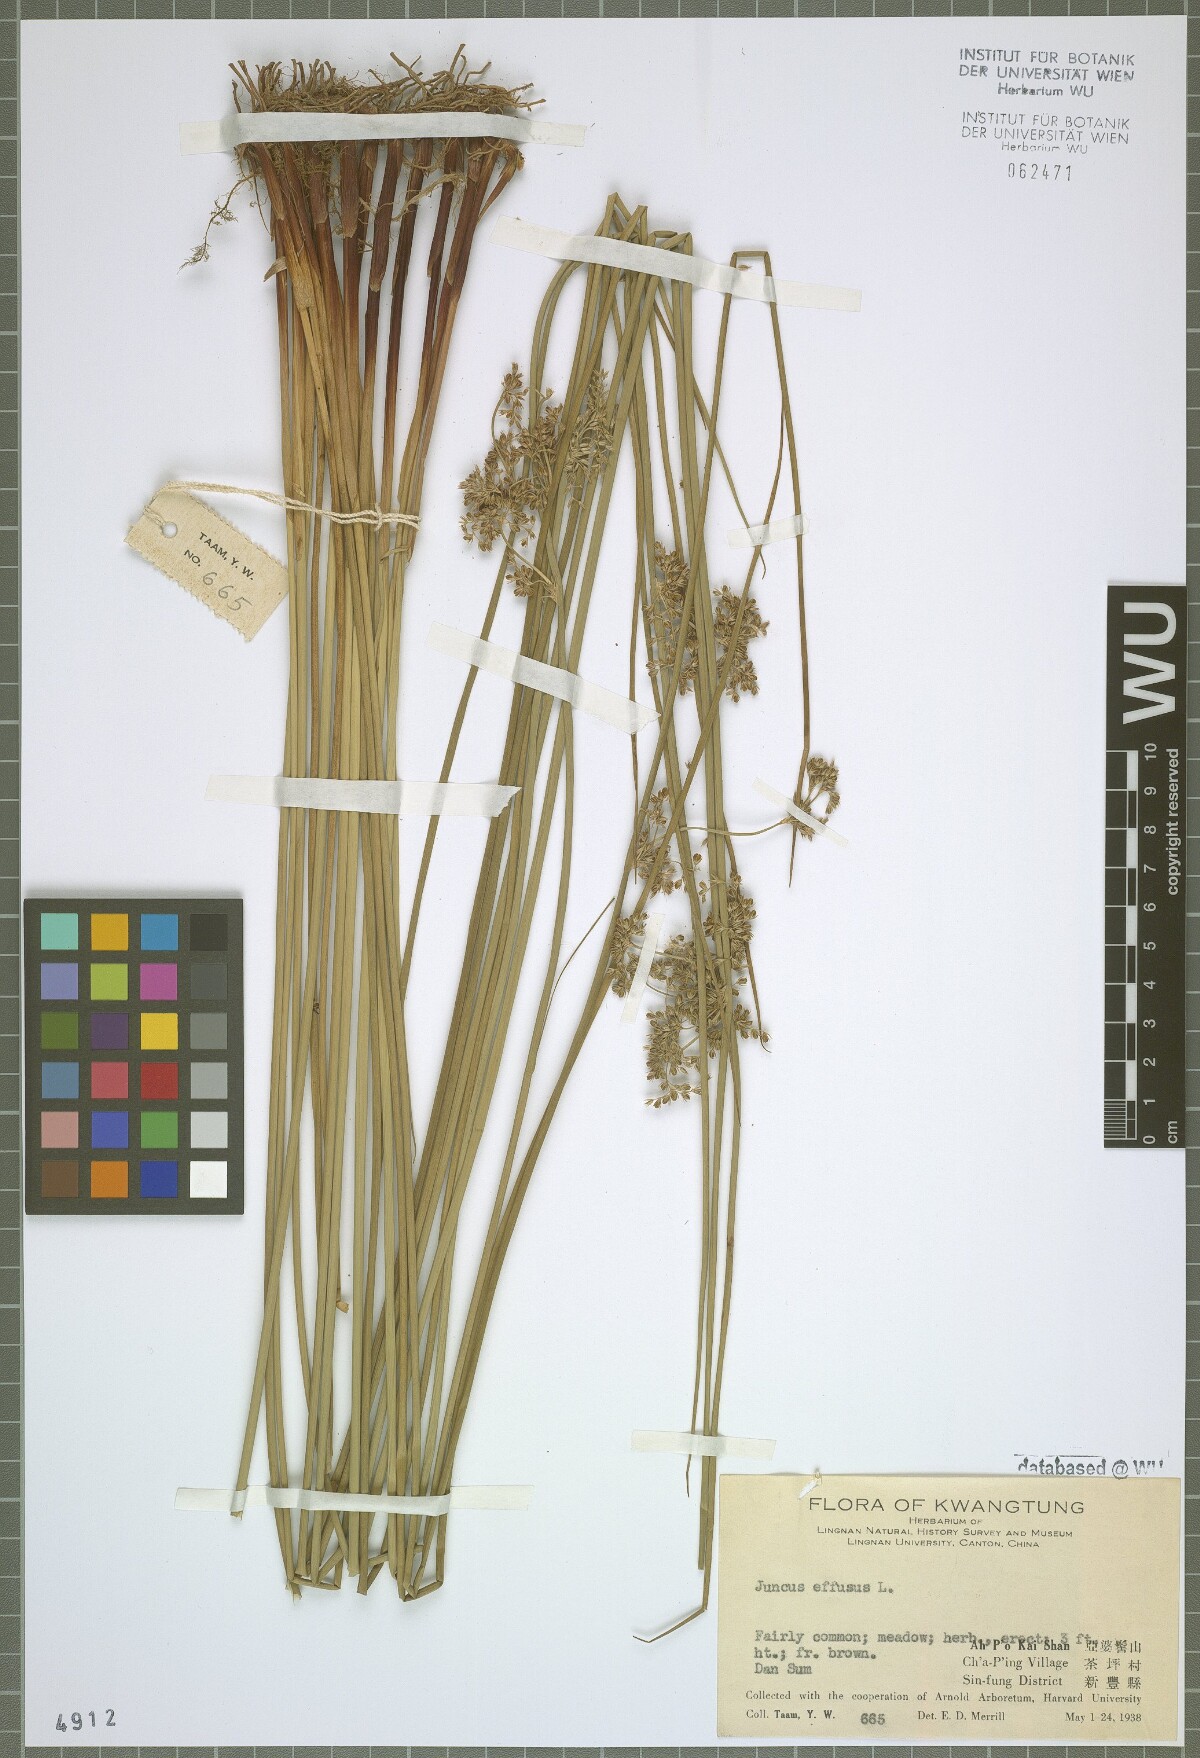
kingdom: Plantae
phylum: Tracheophyta
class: Liliopsida
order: Poales
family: Juncaceae
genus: Juncus
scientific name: Juncus effusus
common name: Soft rush
